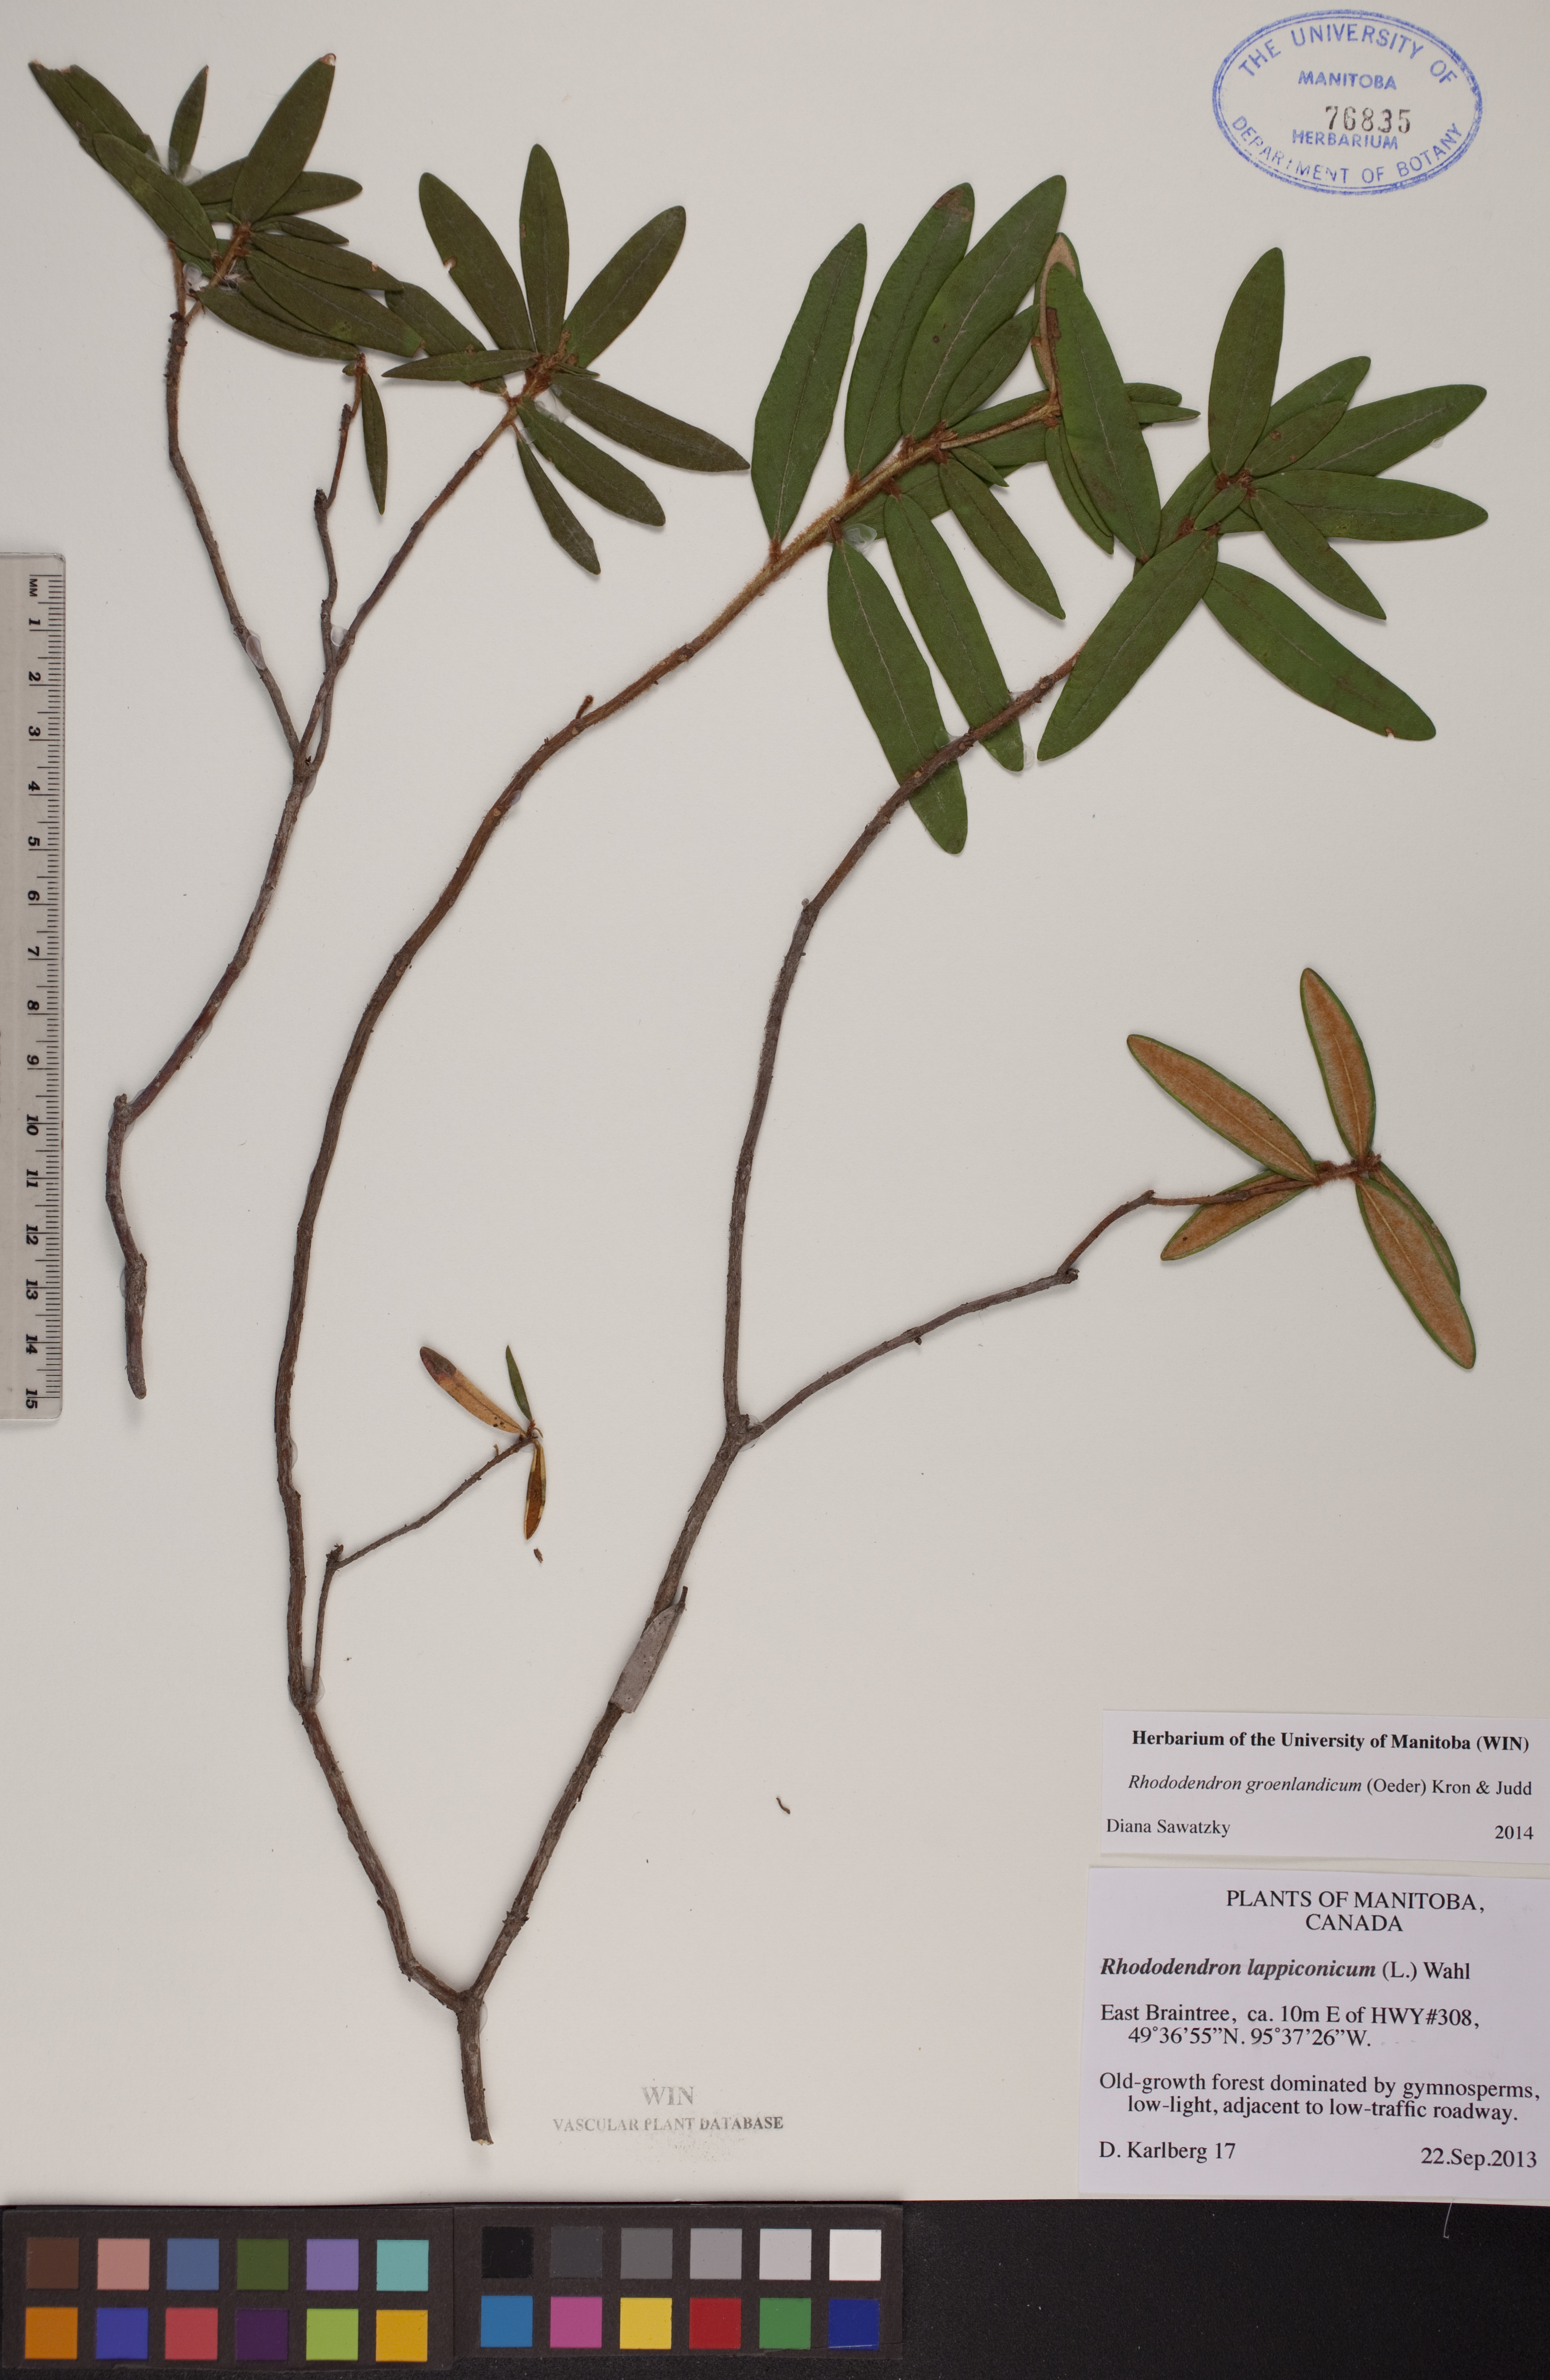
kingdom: Plantae
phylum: Tracheophyta
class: Magnoliopsida
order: Ericales
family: Ericaceae
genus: Rhododendron
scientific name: Rhododendron groenlandicum
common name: Bog labrador tea
